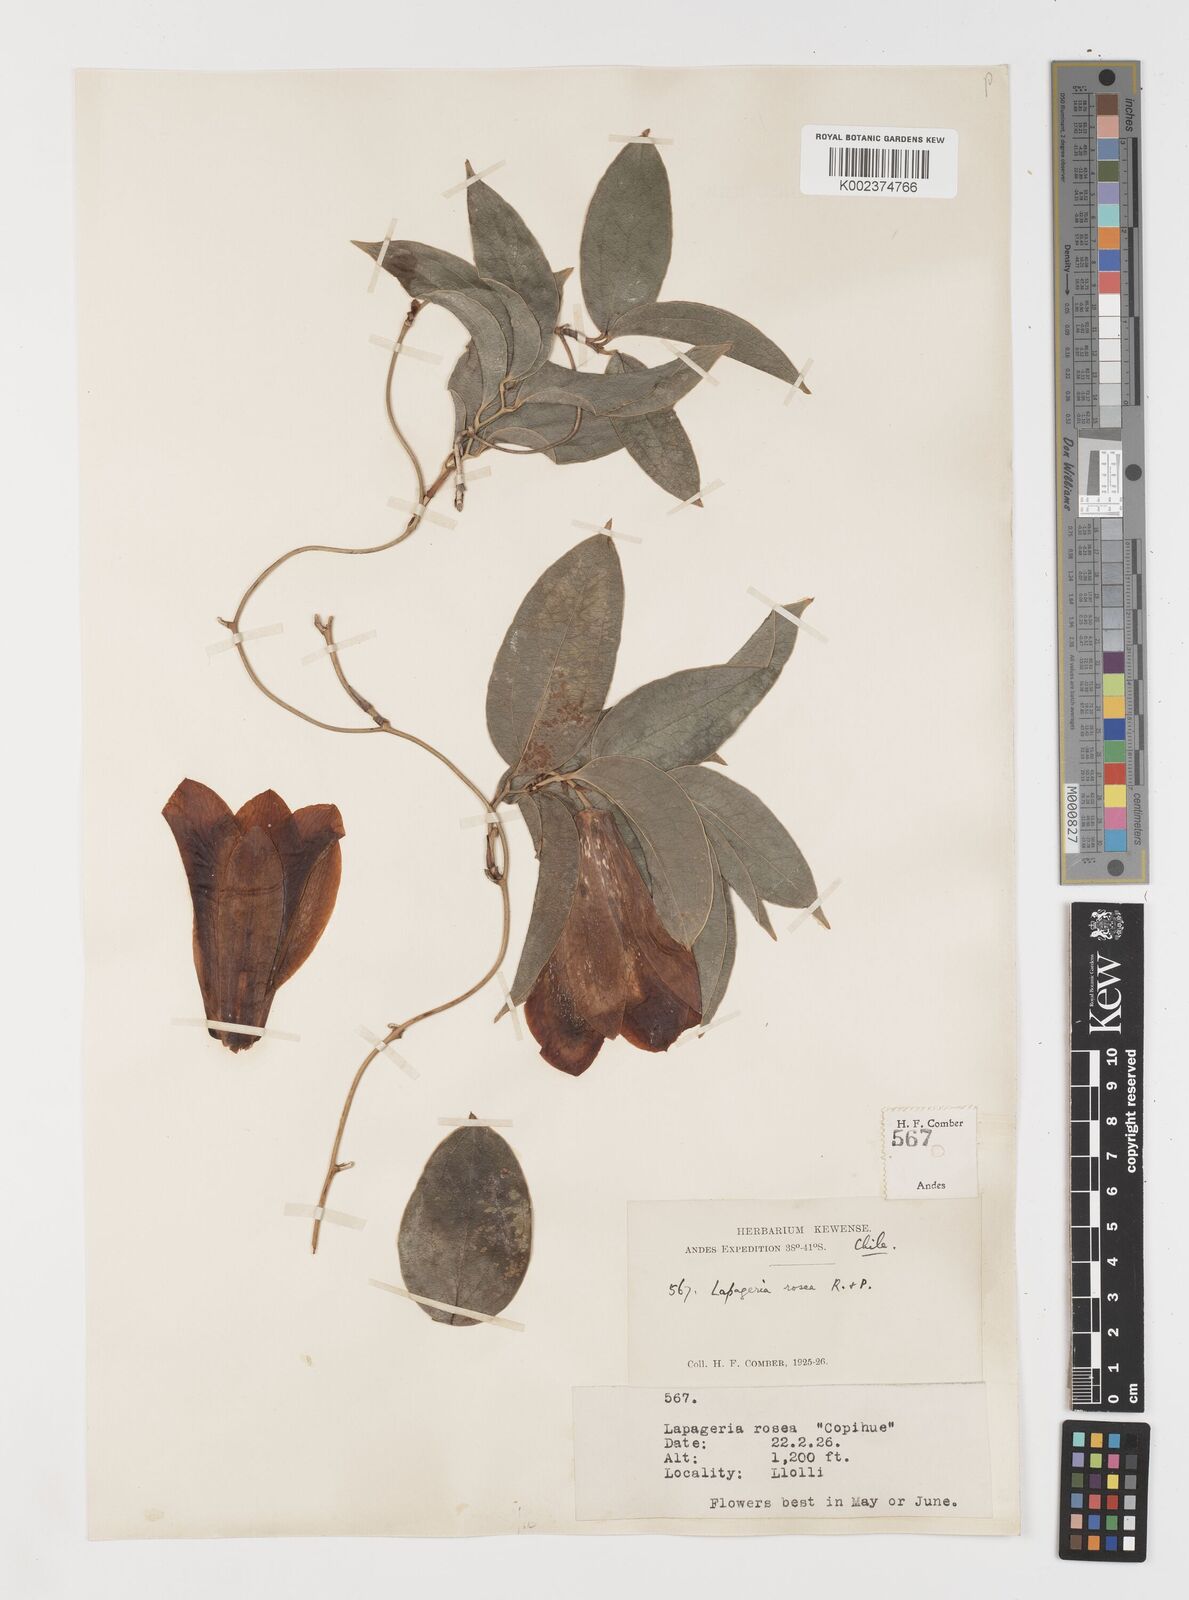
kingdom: Plantae
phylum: Tracheophyta
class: Liliopsida
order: Liliales
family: Philesiaceae
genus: Lapageria
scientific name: Lapageria rosea
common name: Chilean-bellflower
